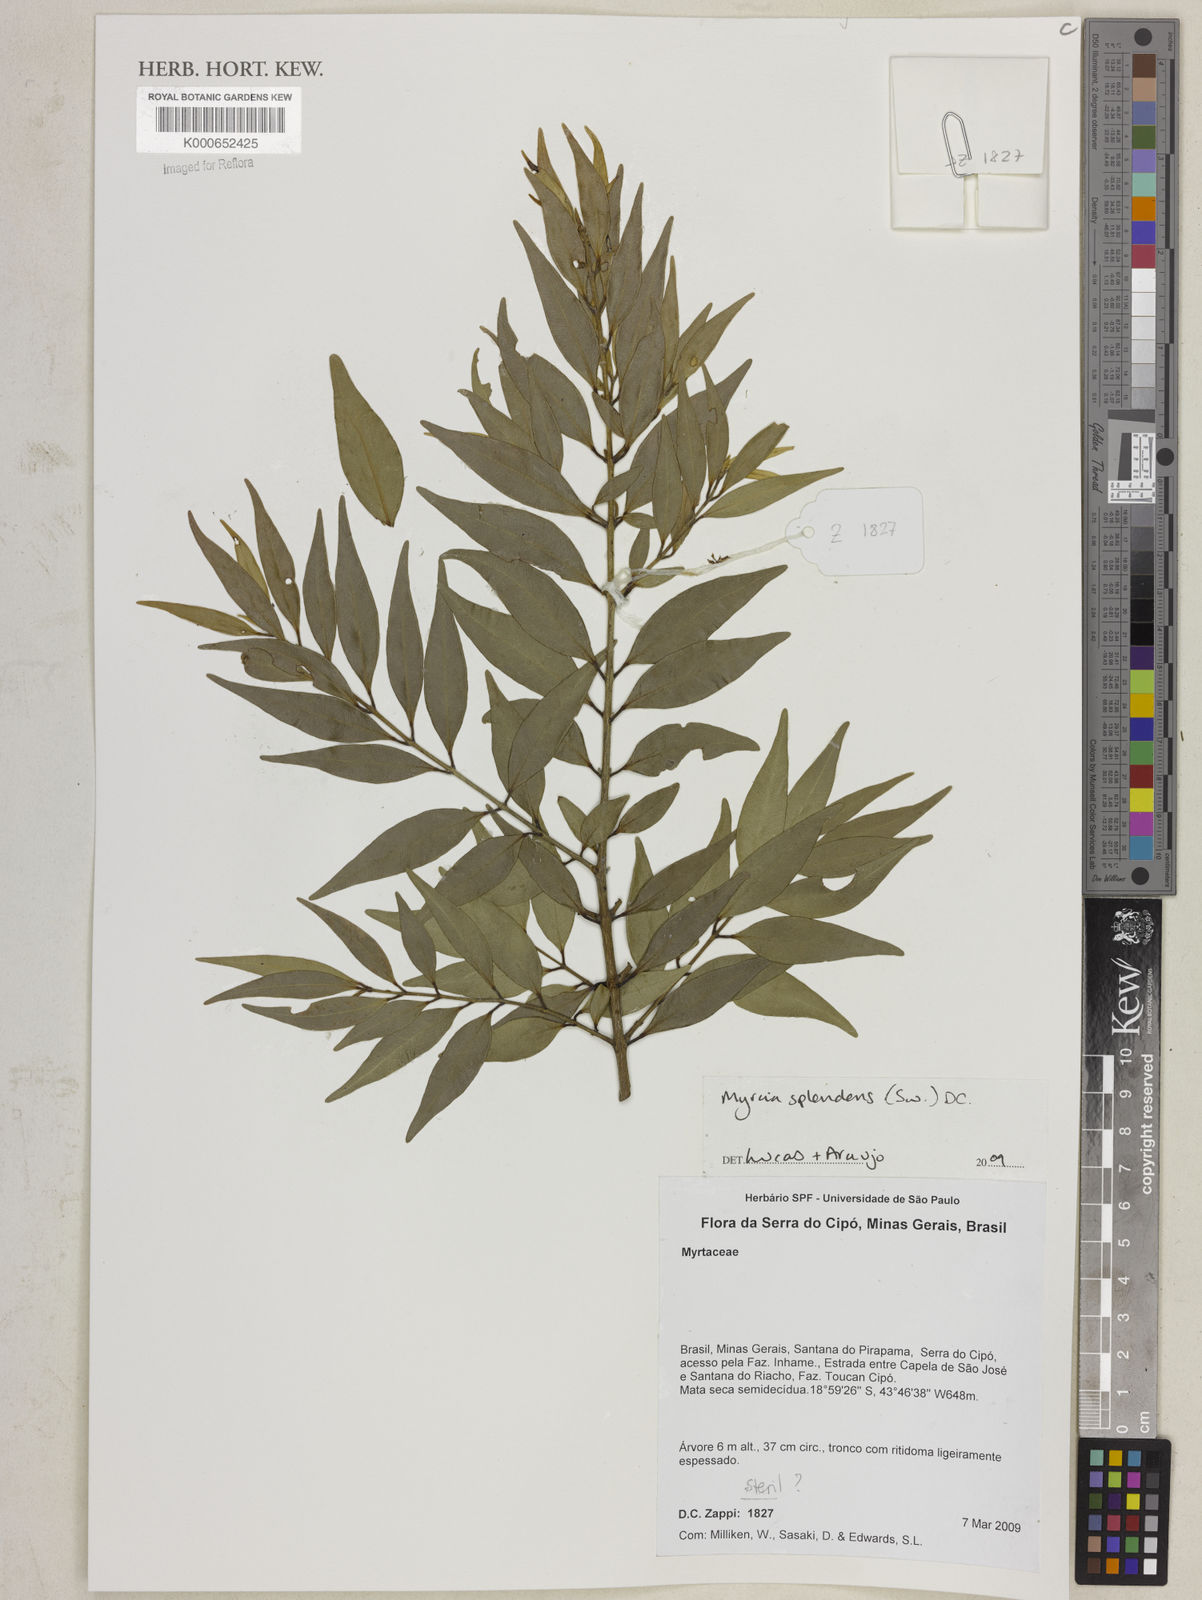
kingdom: Plantae
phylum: Tracheophyta
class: Magnoliopsida
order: Myrtales
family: Myrtaceae
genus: Myrcia
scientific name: Myrcia splendens
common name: Surinam cherry
